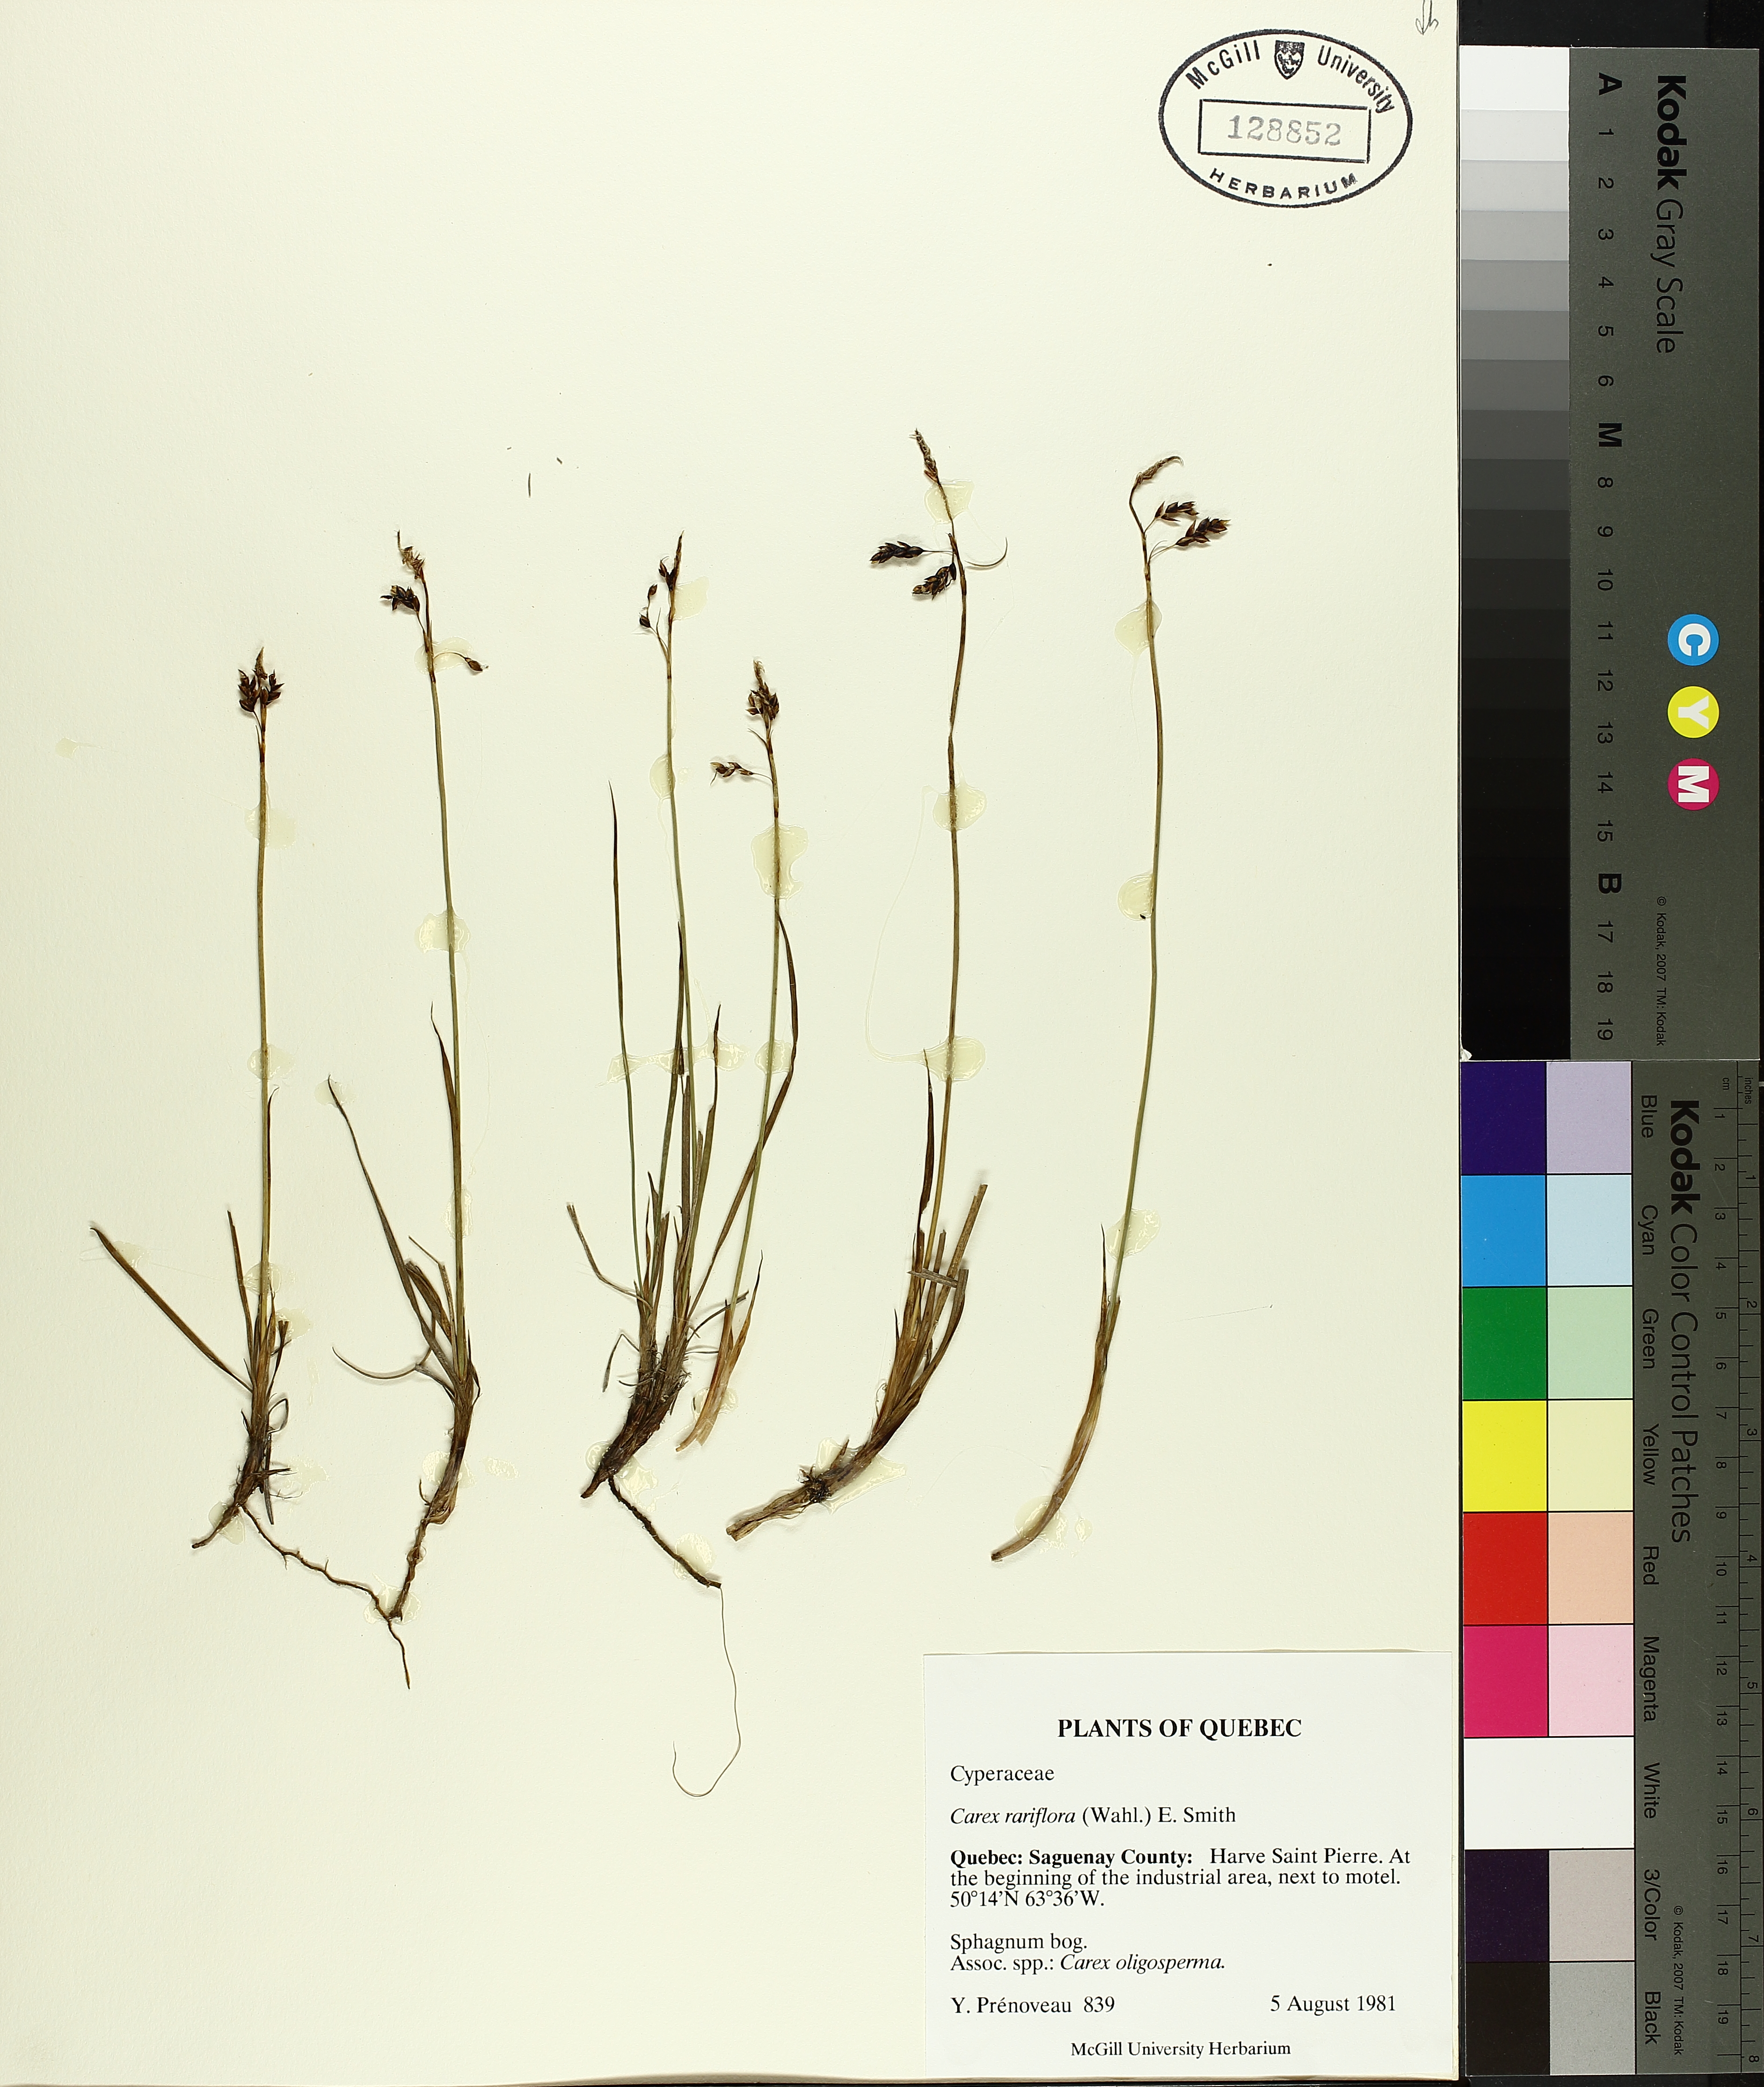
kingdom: Plantae
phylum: Tracheophyta
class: Liliopsida
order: Poales
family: Cyperaceae
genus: Carex
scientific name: Carex rariflora
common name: Loose-flowered alpine sedge
